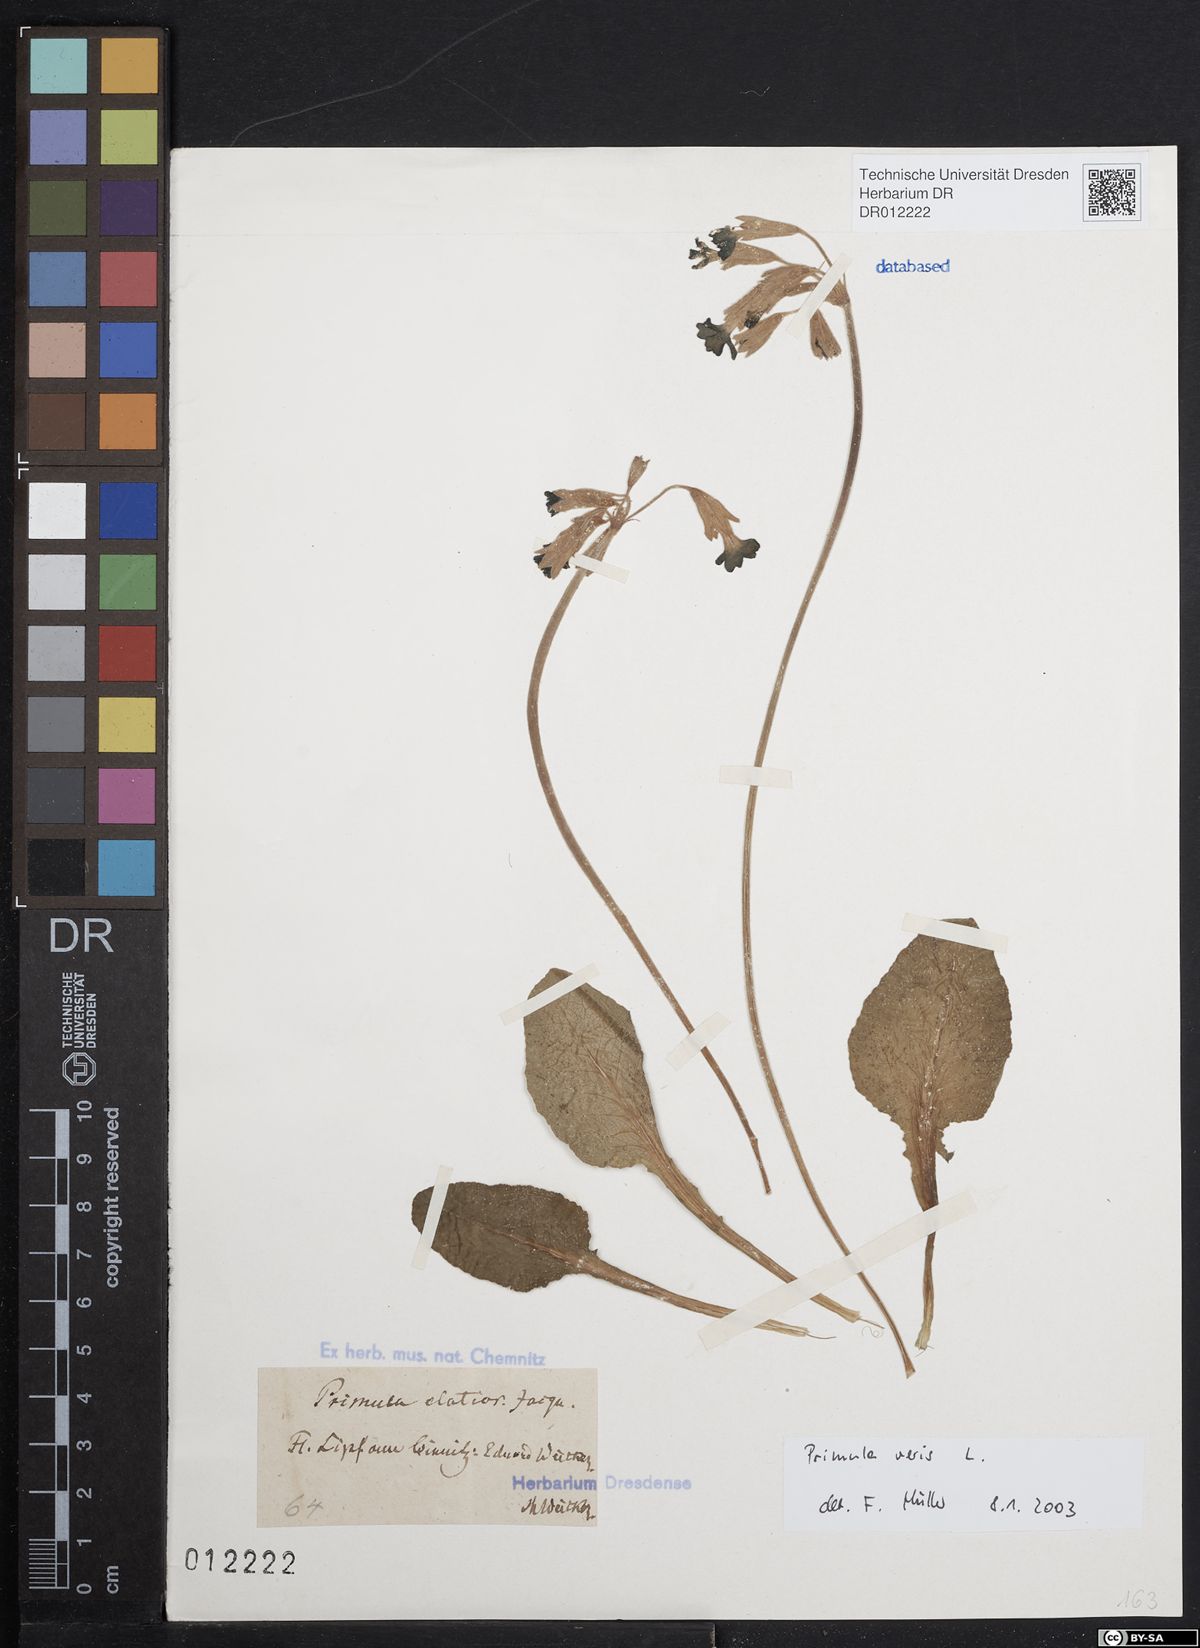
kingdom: Plantae
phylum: Tracheophyta
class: Magnoliopsida
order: Ericales
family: Primulaceae
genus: Primula
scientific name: Primula veris
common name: Cowslip
